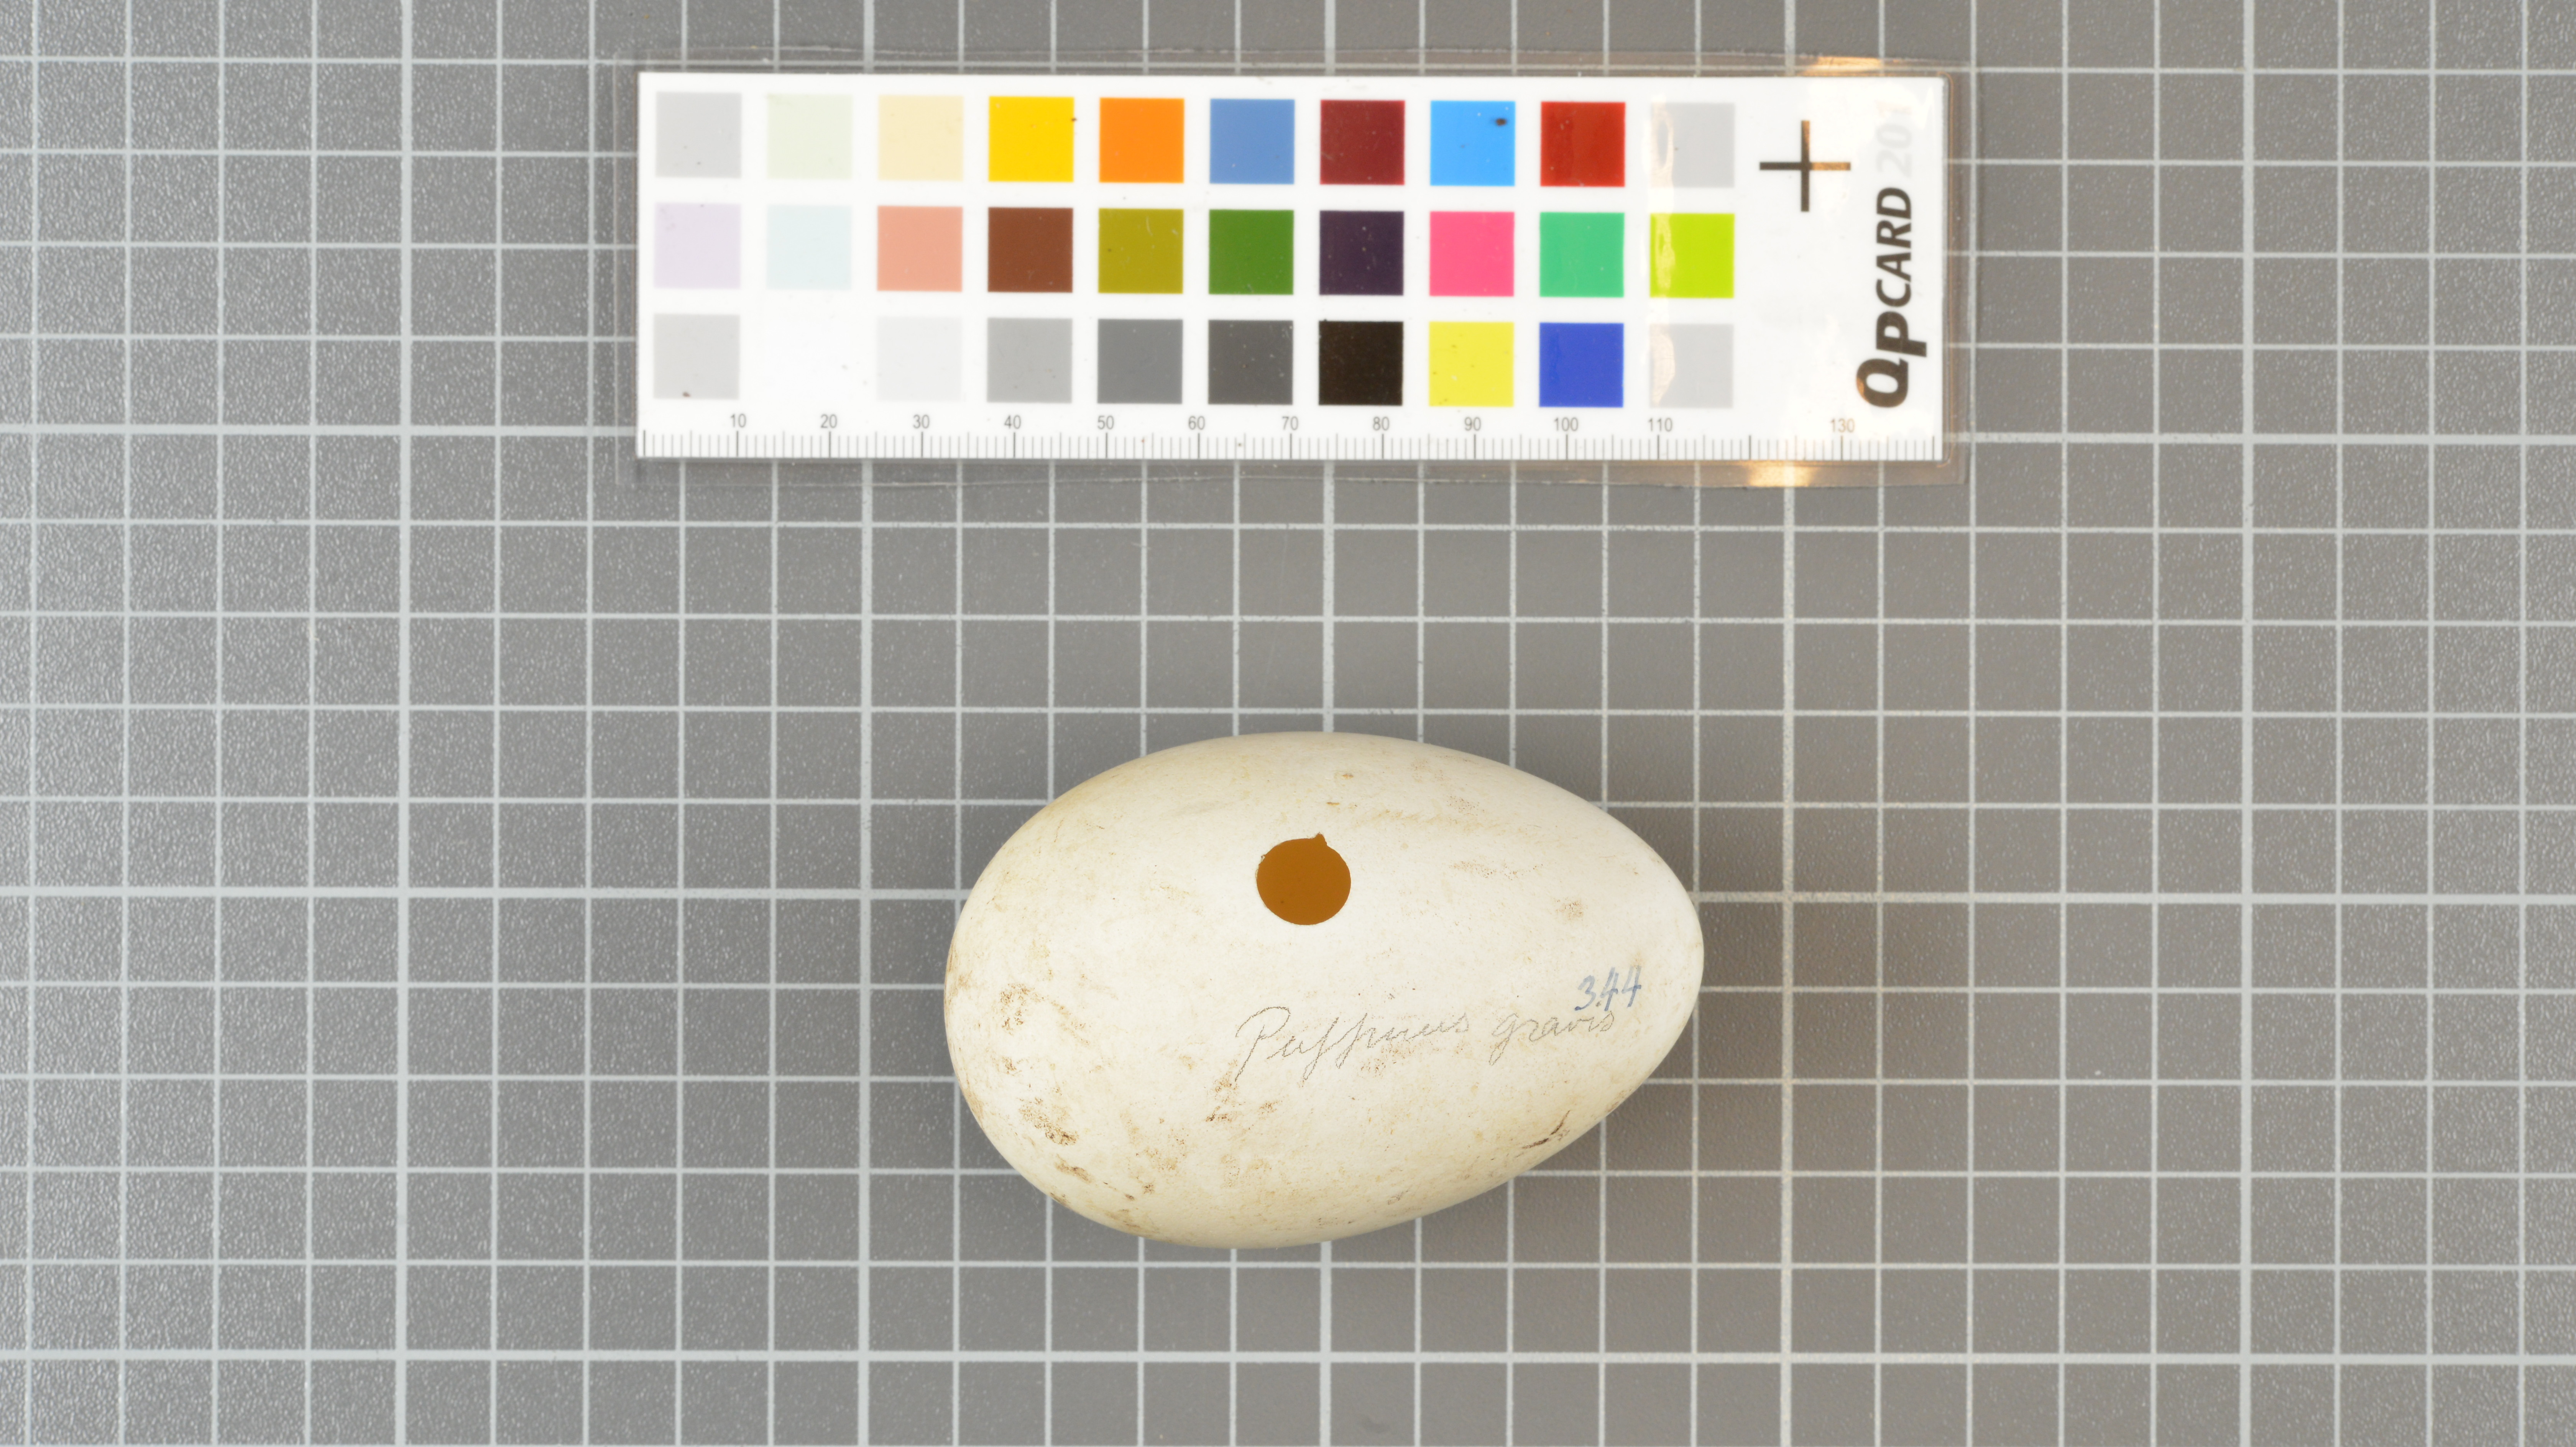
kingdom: Animalia
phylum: Chordata
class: Aves
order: Procellariiformes
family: Procellariidae
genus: Puffinus
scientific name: Puffinus gravis
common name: Great shearwater
